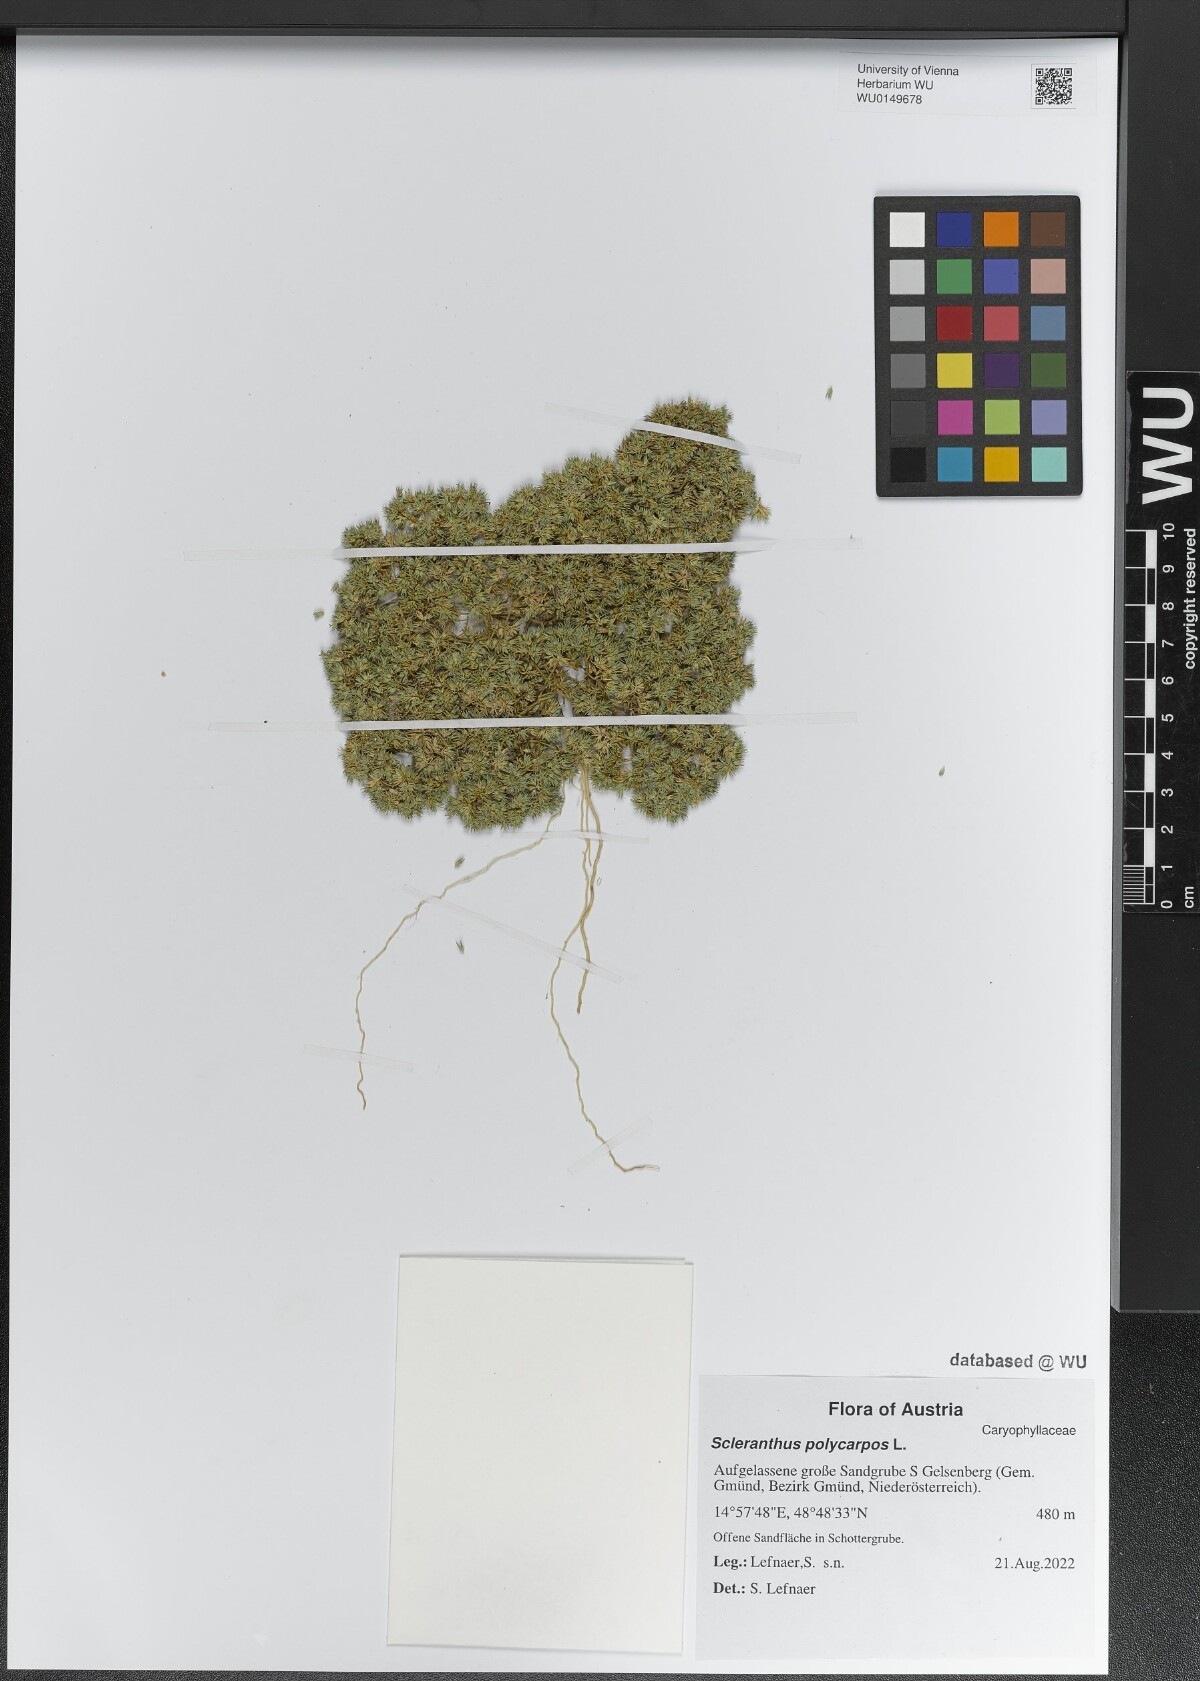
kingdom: Plantae
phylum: Tracheophyta
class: Magnoliopsida
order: Caryophyllales
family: Caryophyllaceae
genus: Scleranthus
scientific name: Scleranthus annuus
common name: Annual knawel
